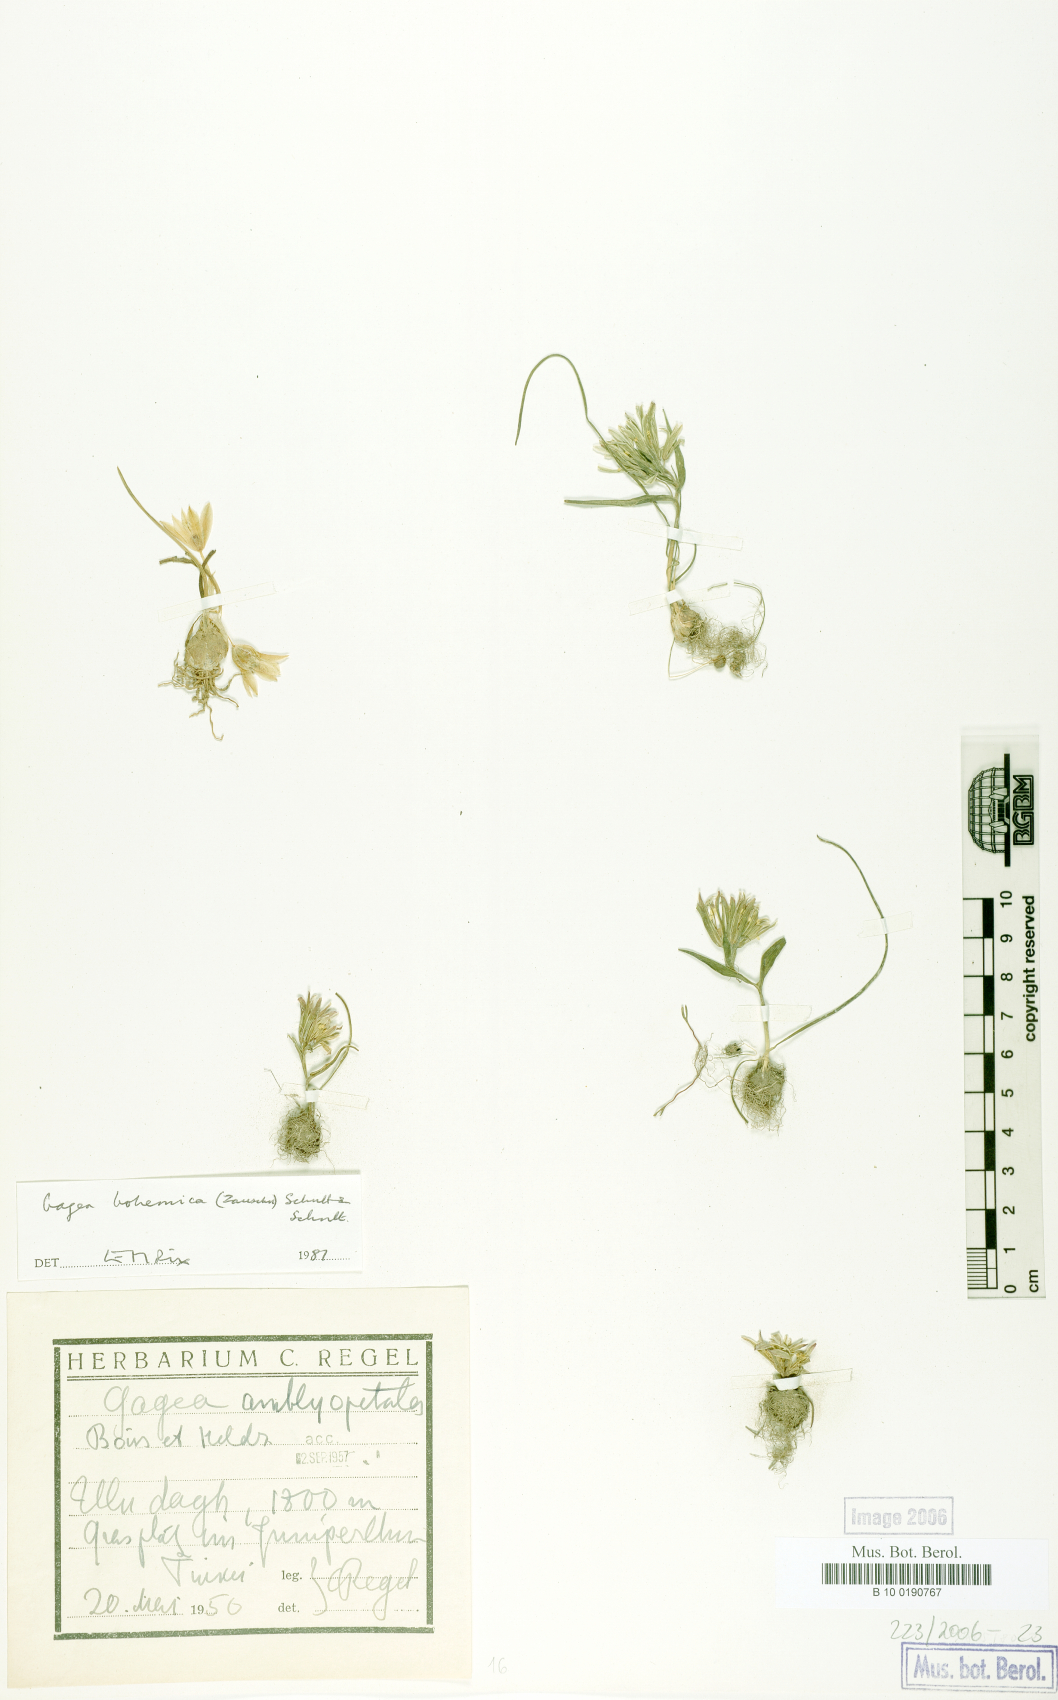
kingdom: Plantae
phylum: Tracheophyta
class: Liliopsida
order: Liliales
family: Liliaceae
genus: Gagea
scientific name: Gagea bohemica
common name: Early star-of-bethlehem
